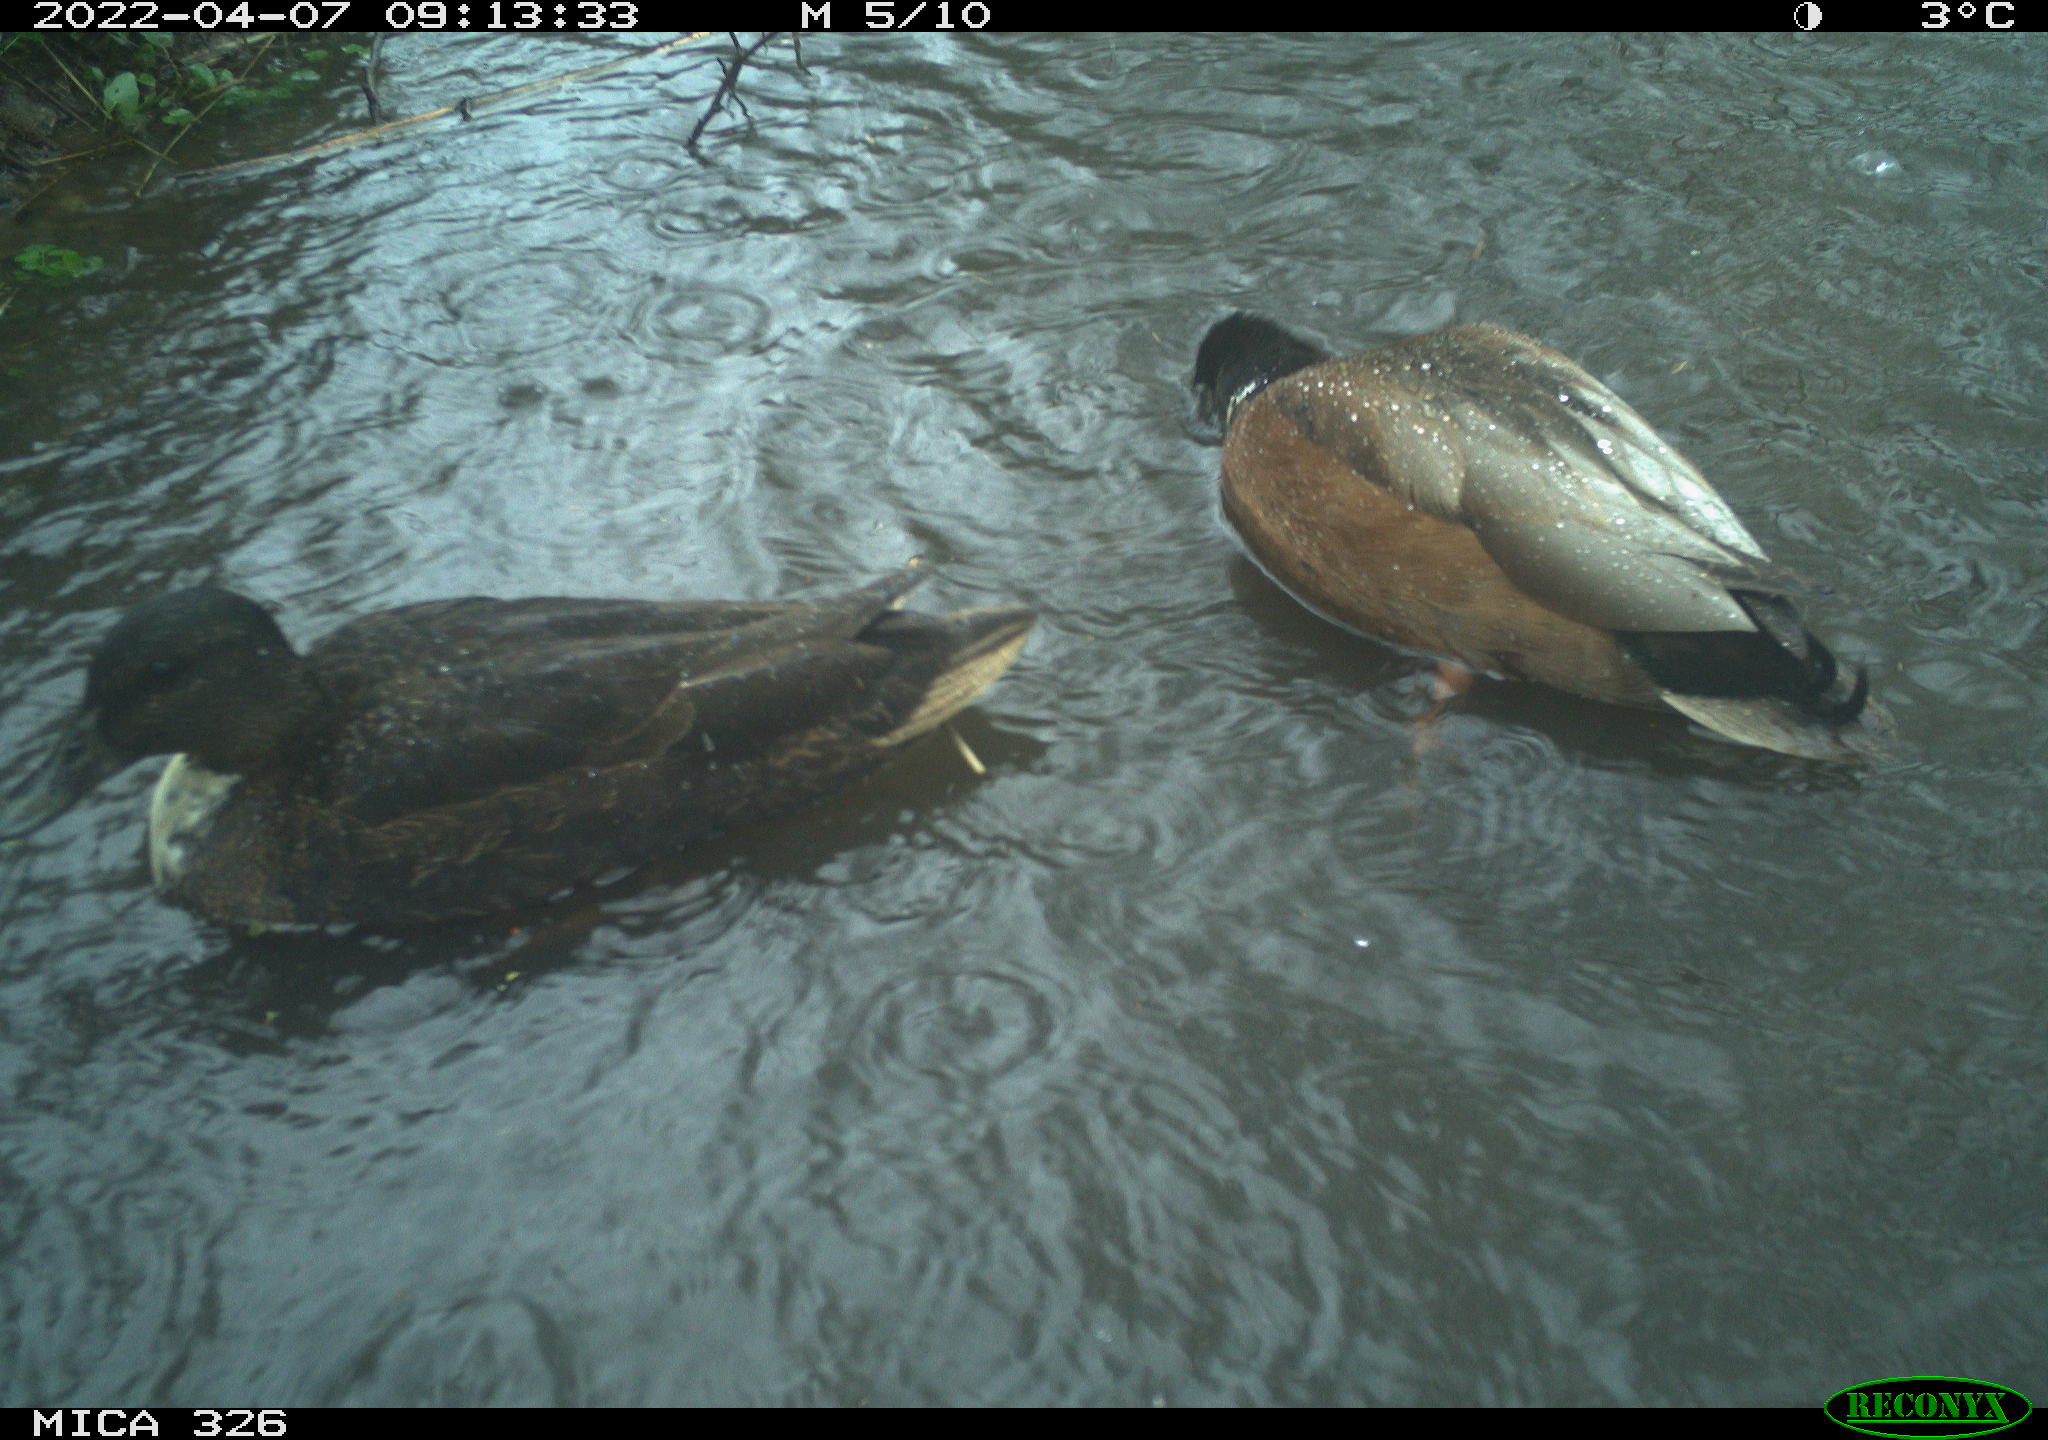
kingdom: Animalia
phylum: Chordata
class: Aves
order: Anseriformes
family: Anatidae
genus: Anas
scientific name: Anas platyrhynchos
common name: Mallard
